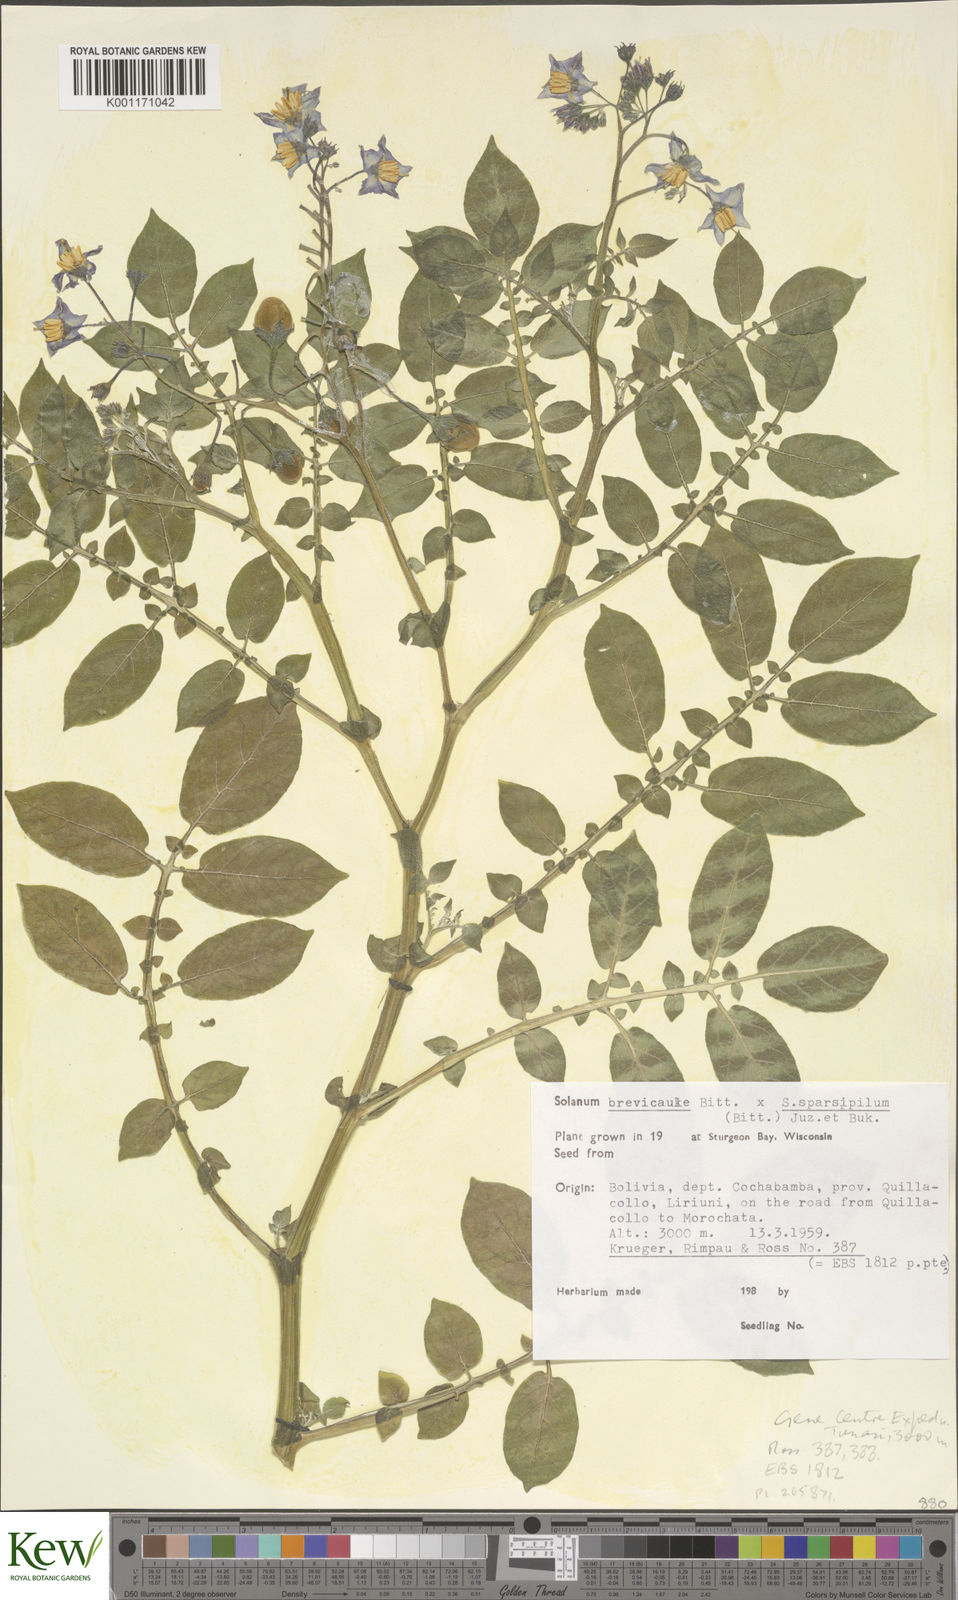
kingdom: Plantae
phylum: Tracheophyta
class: Magnoliopsida
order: Solanales
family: Solanaceae
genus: Solanum
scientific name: Solanum brevicaule
